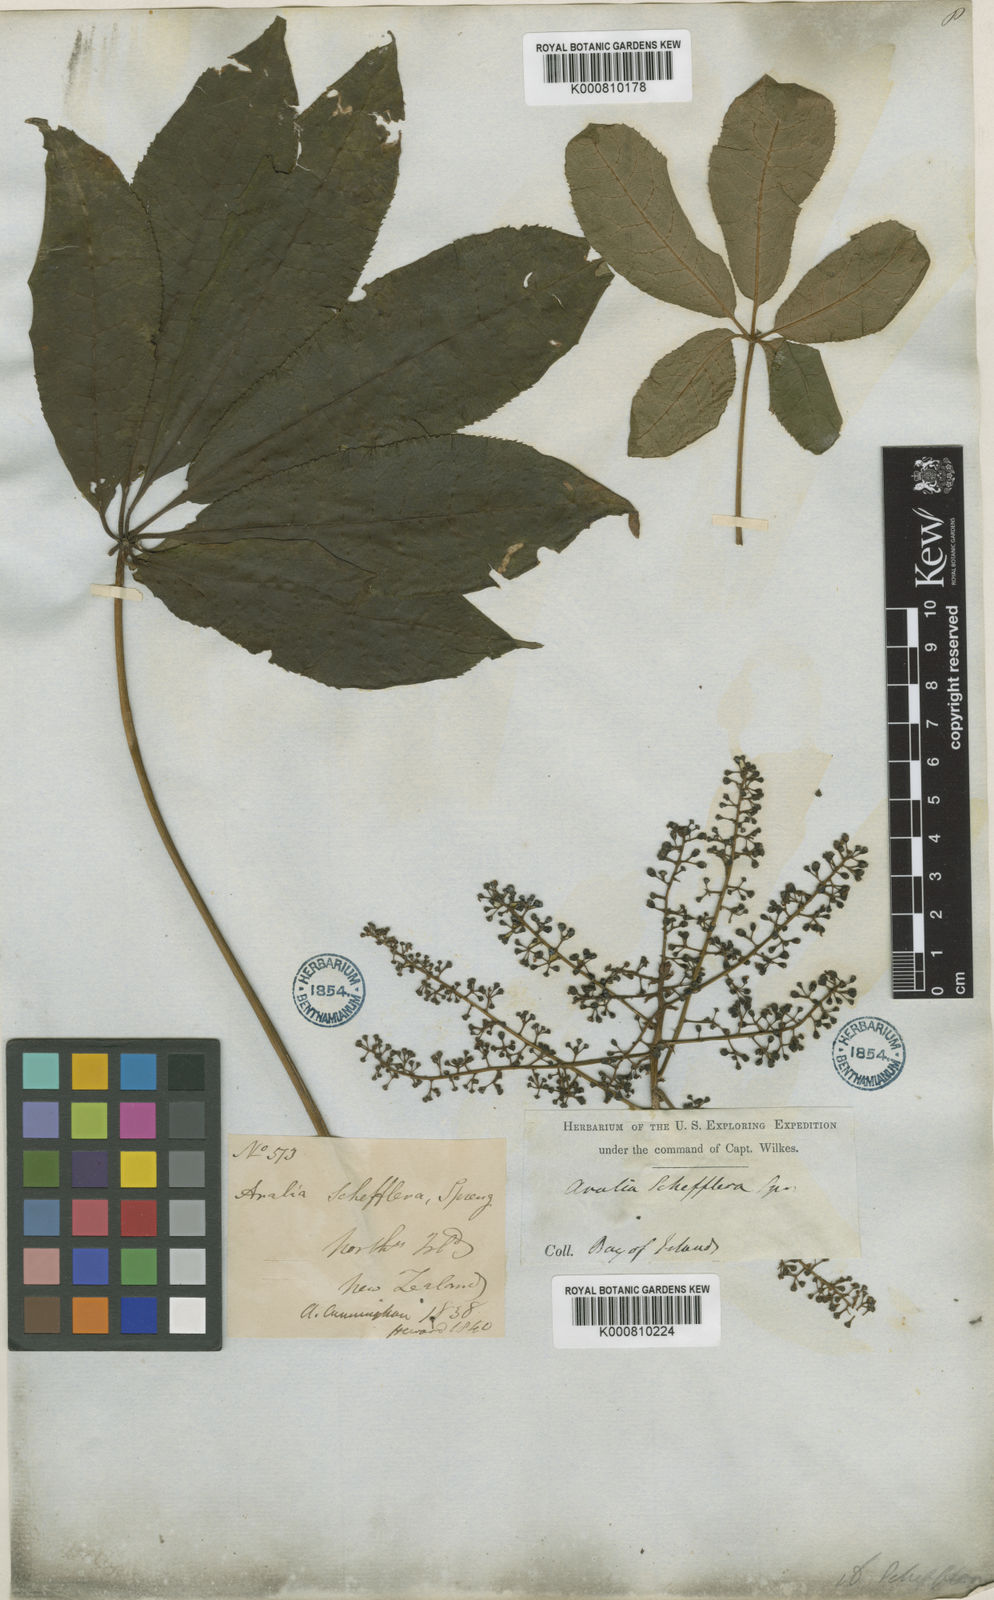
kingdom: Plantae
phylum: Tracheophyta
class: Magnoliopsida
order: Apiales
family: Araliaceae
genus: Schefflera
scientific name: Schefflera digitata
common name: Pate
